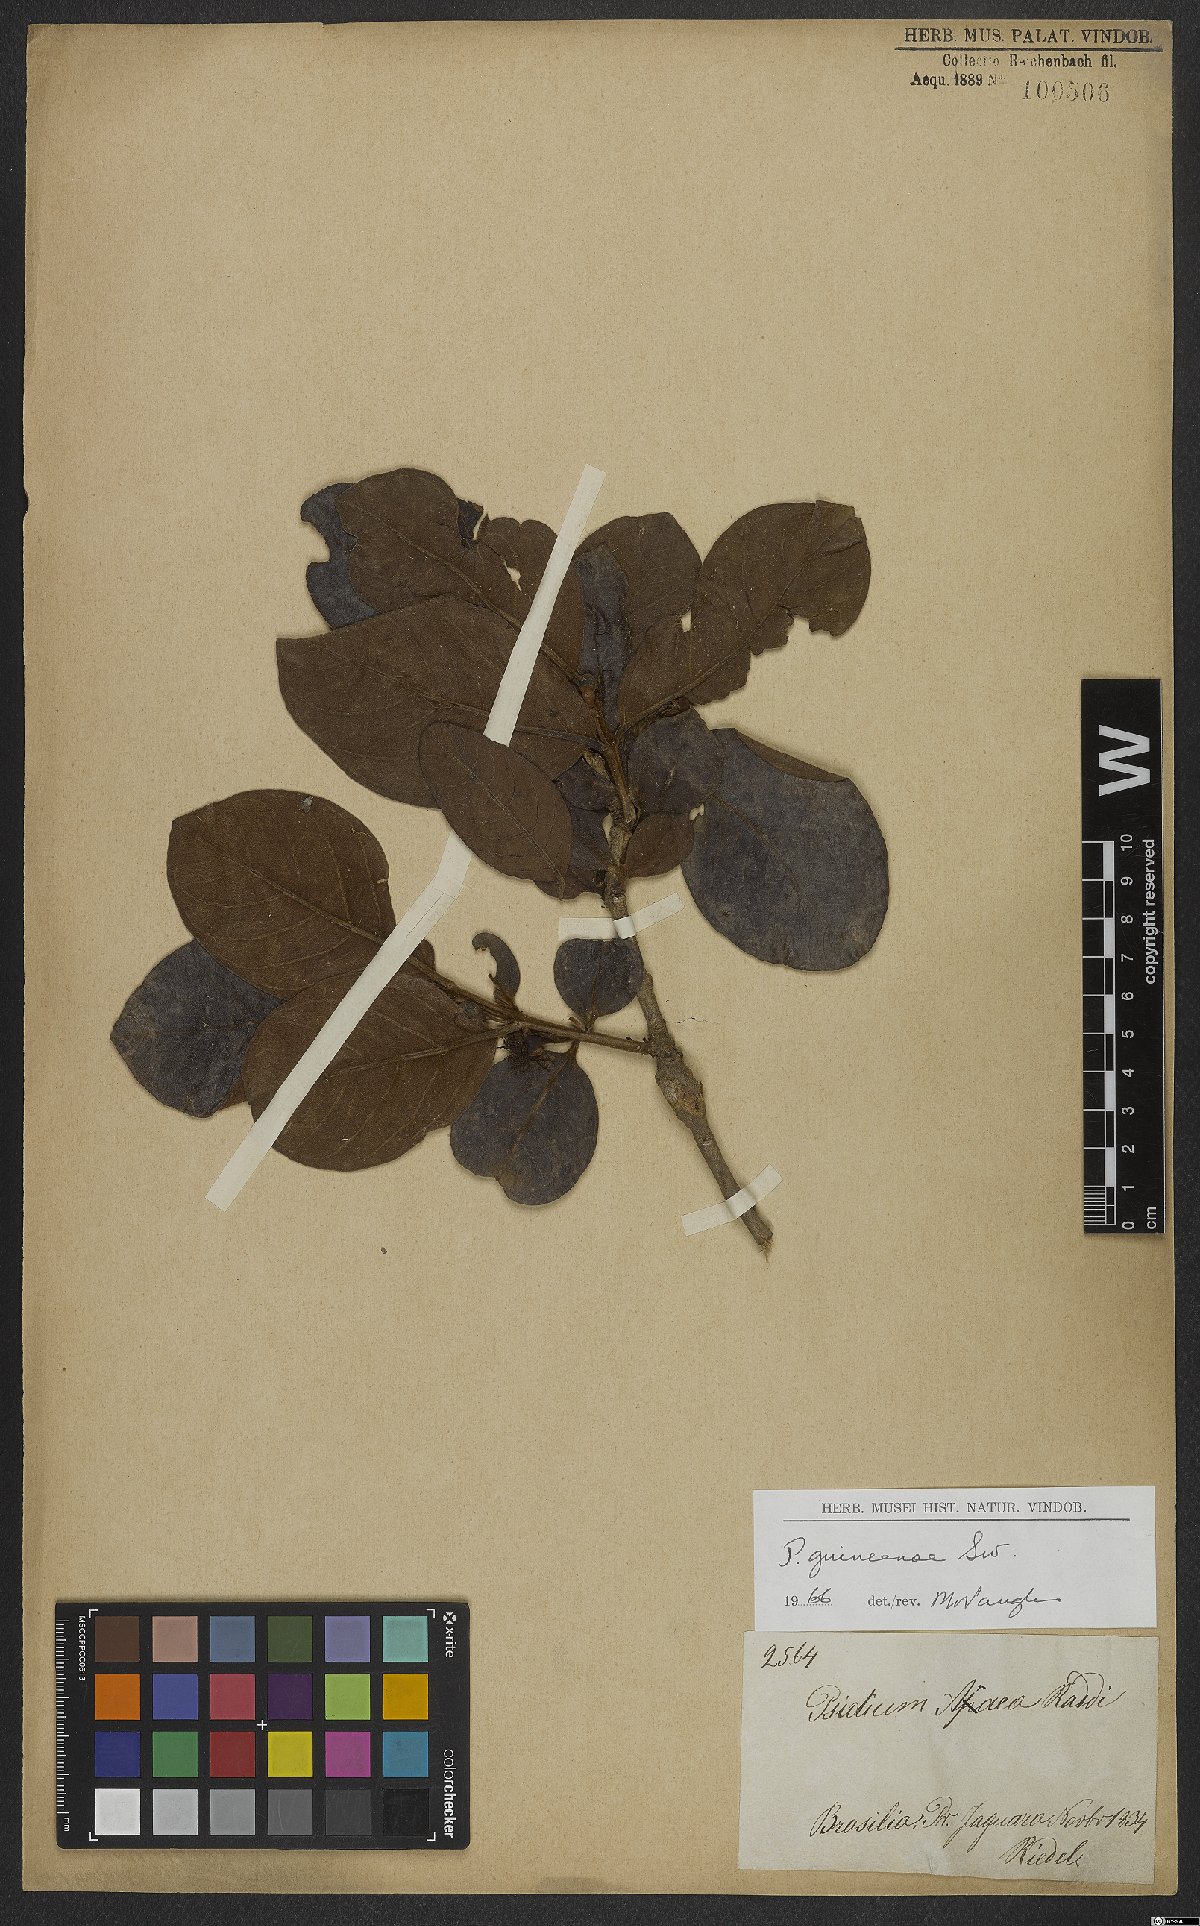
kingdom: Plantae
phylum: Tracheophyta
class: Magnoliopsida
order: Myrtales
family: Myrtaceae
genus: Psidium
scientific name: Psidium guineense
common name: Brazilian guava
